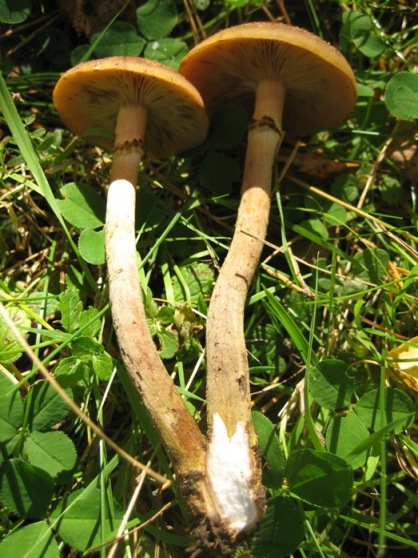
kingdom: Fungi
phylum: Basidiomycota
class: Agaricomycetes
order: Agaricales
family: Physalacriaceae
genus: Armillaria
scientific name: Armillaria ostoyae
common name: mørk honningsvamp
